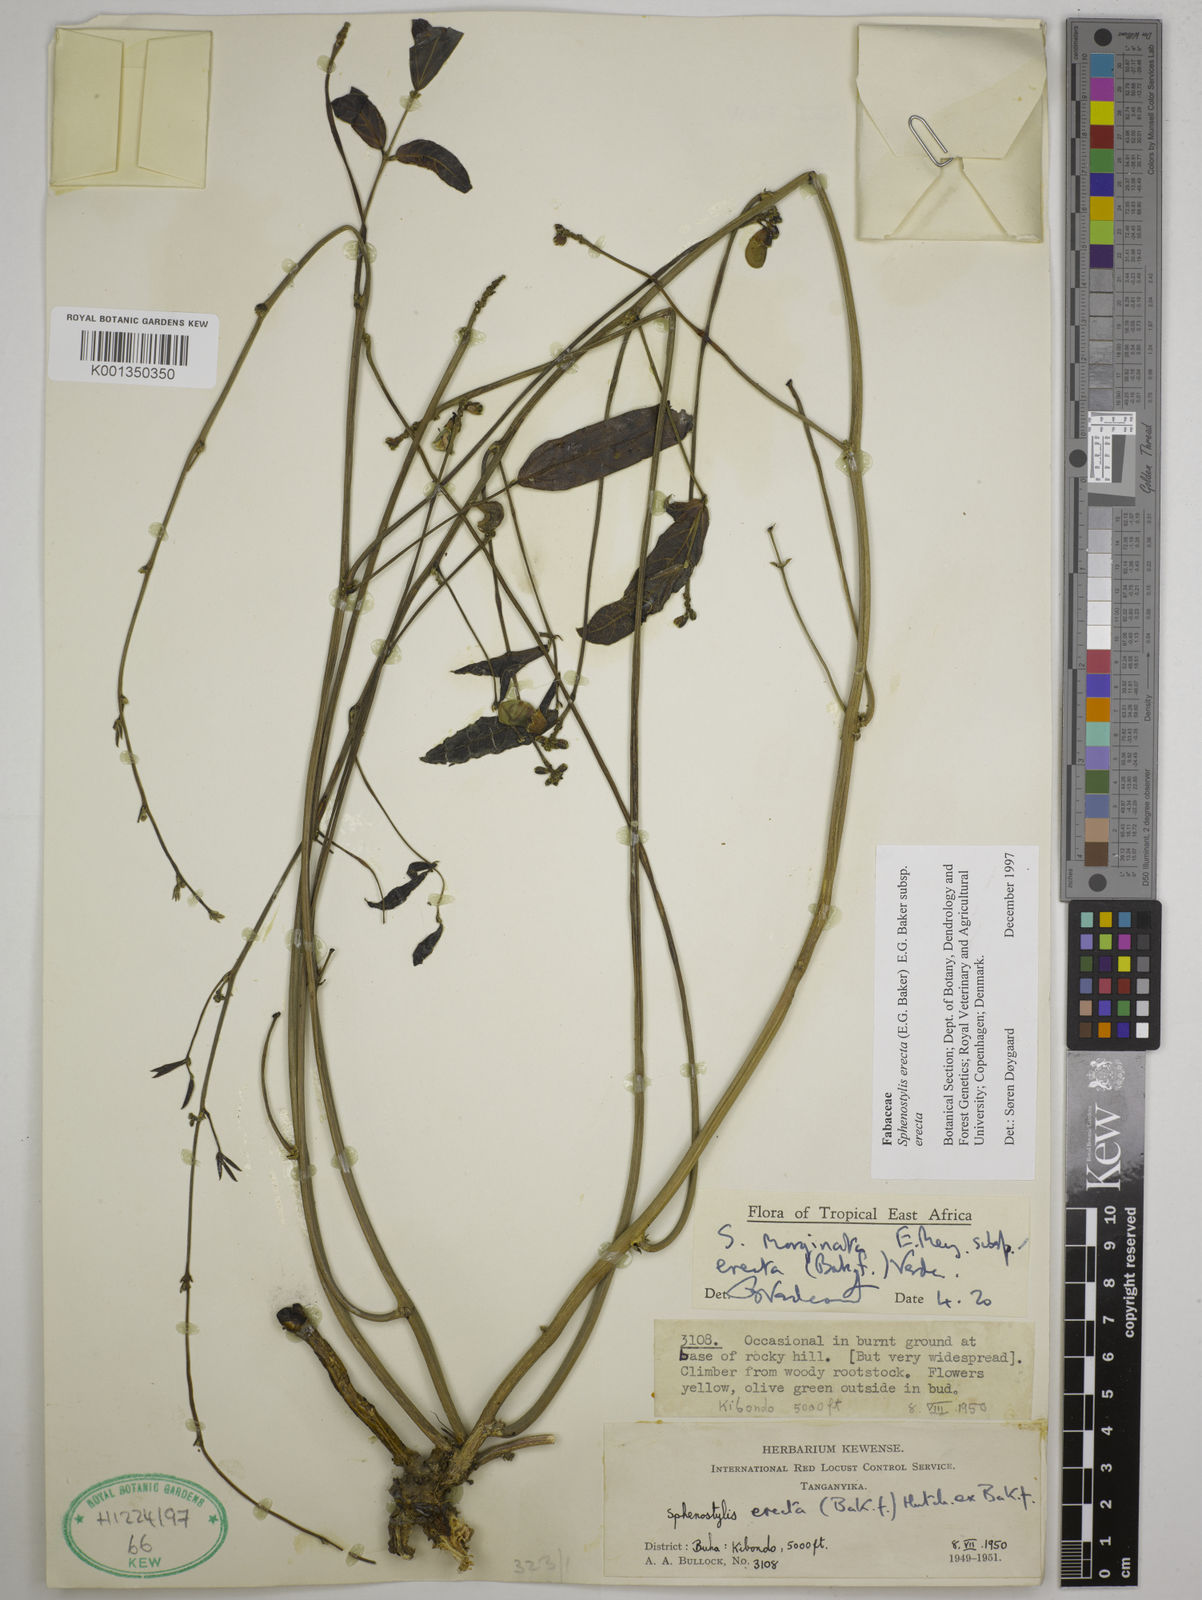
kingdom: Plantae
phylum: Tracheophyta
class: Magnoliopsida
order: Fabales
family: Fabaceae
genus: Sphenostylis
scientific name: Sphenostylis erecta
